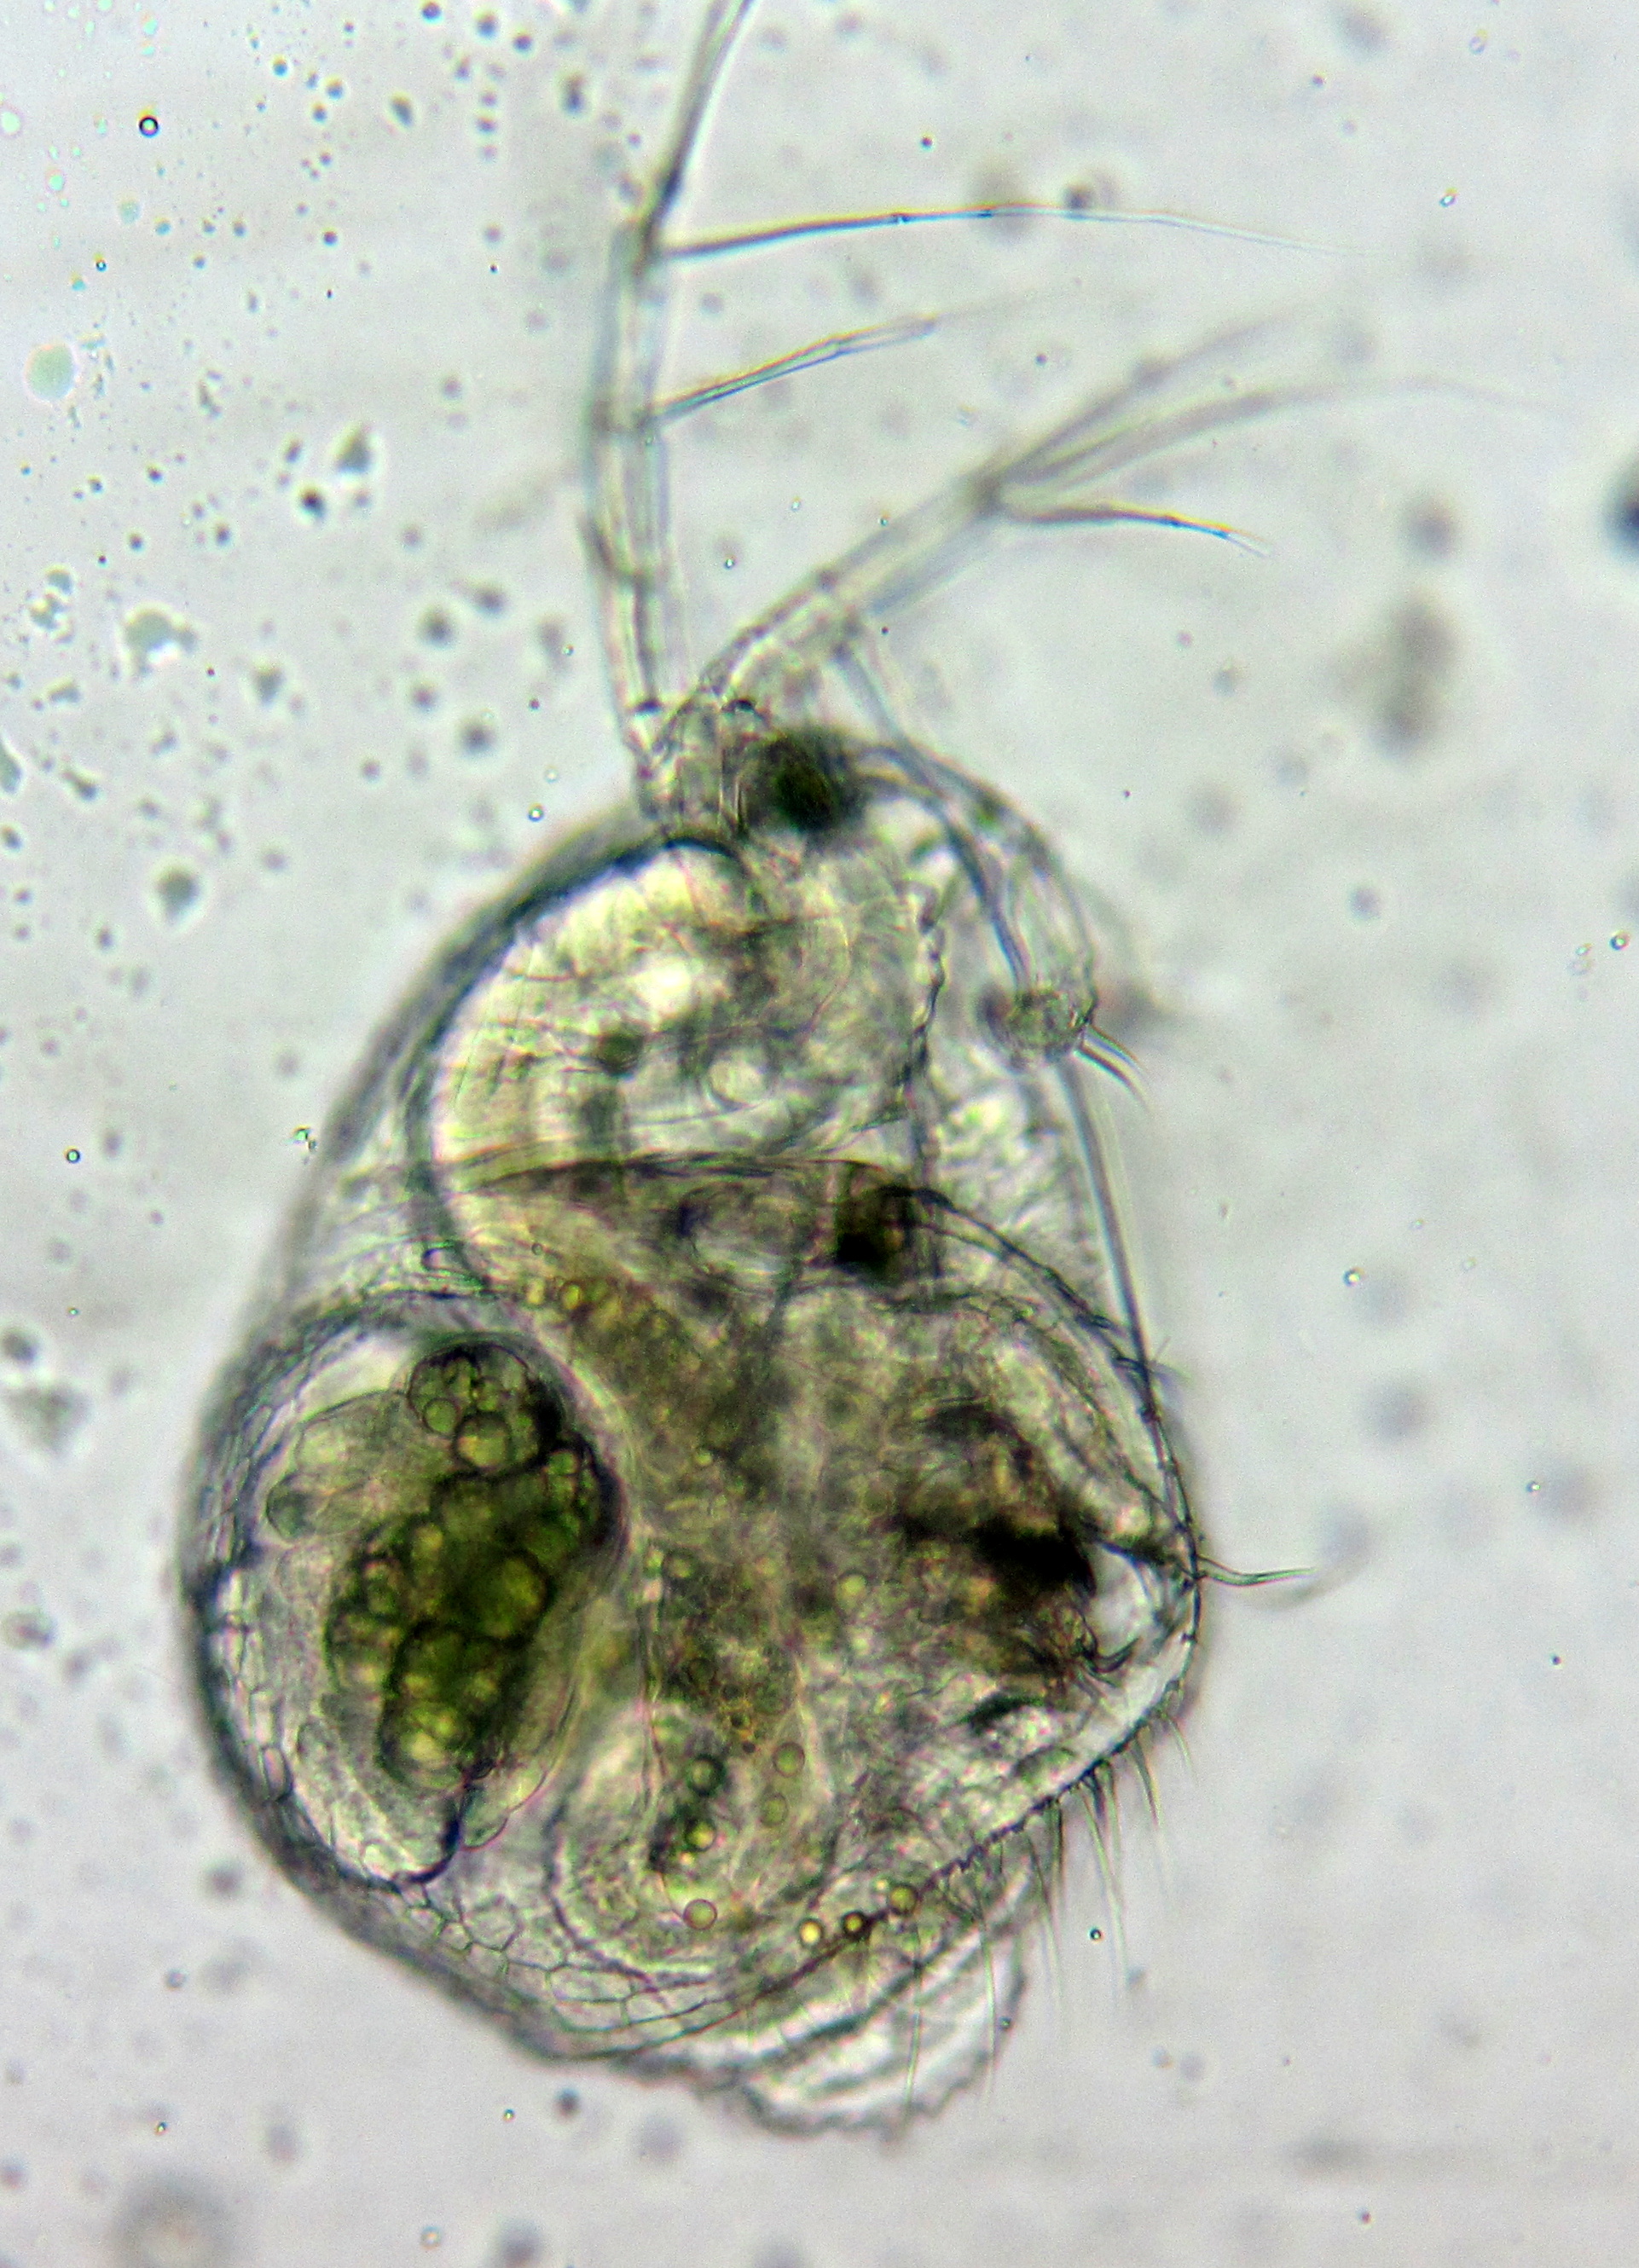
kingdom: Animalia
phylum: Arthropoda
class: Branchiopoda
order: Diplostraca
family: Macrothricidae
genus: Streblocerus
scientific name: Streblocerus serricaudatus
